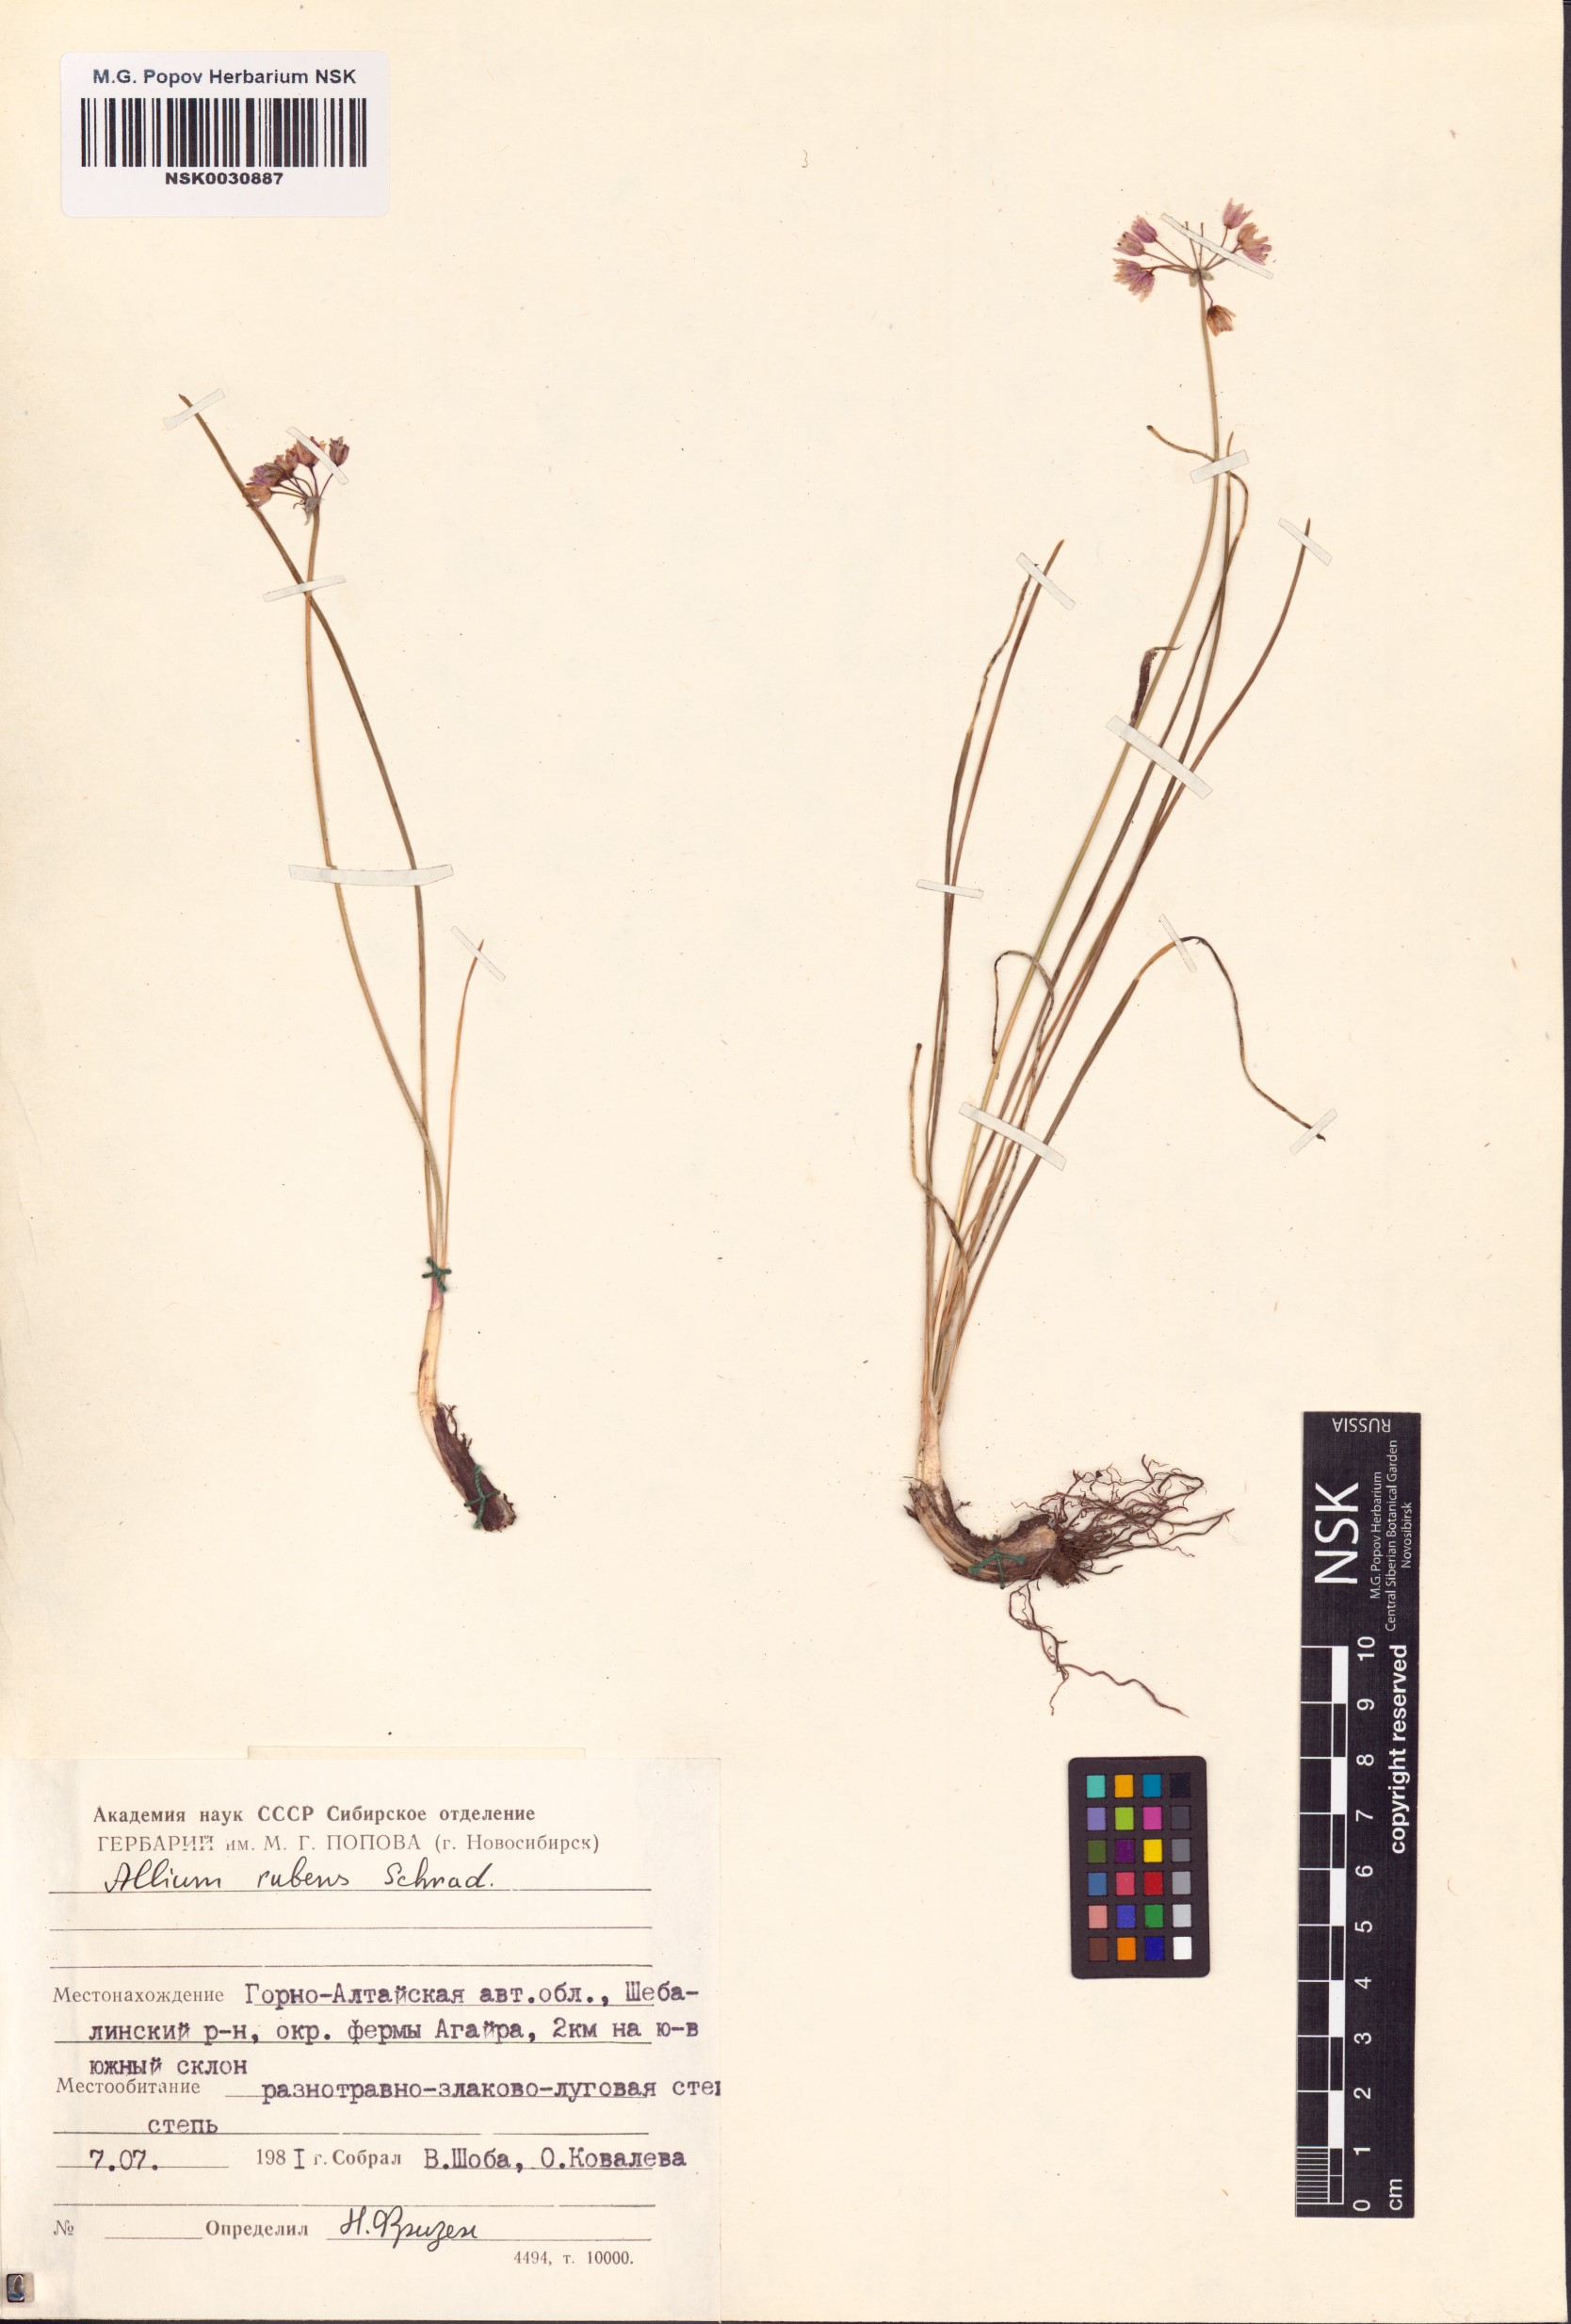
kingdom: Plantae
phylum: Tracheophyta
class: Liliopsida
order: Asparagales
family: Amaryllidaceae
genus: Allium
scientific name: Allium rubens
